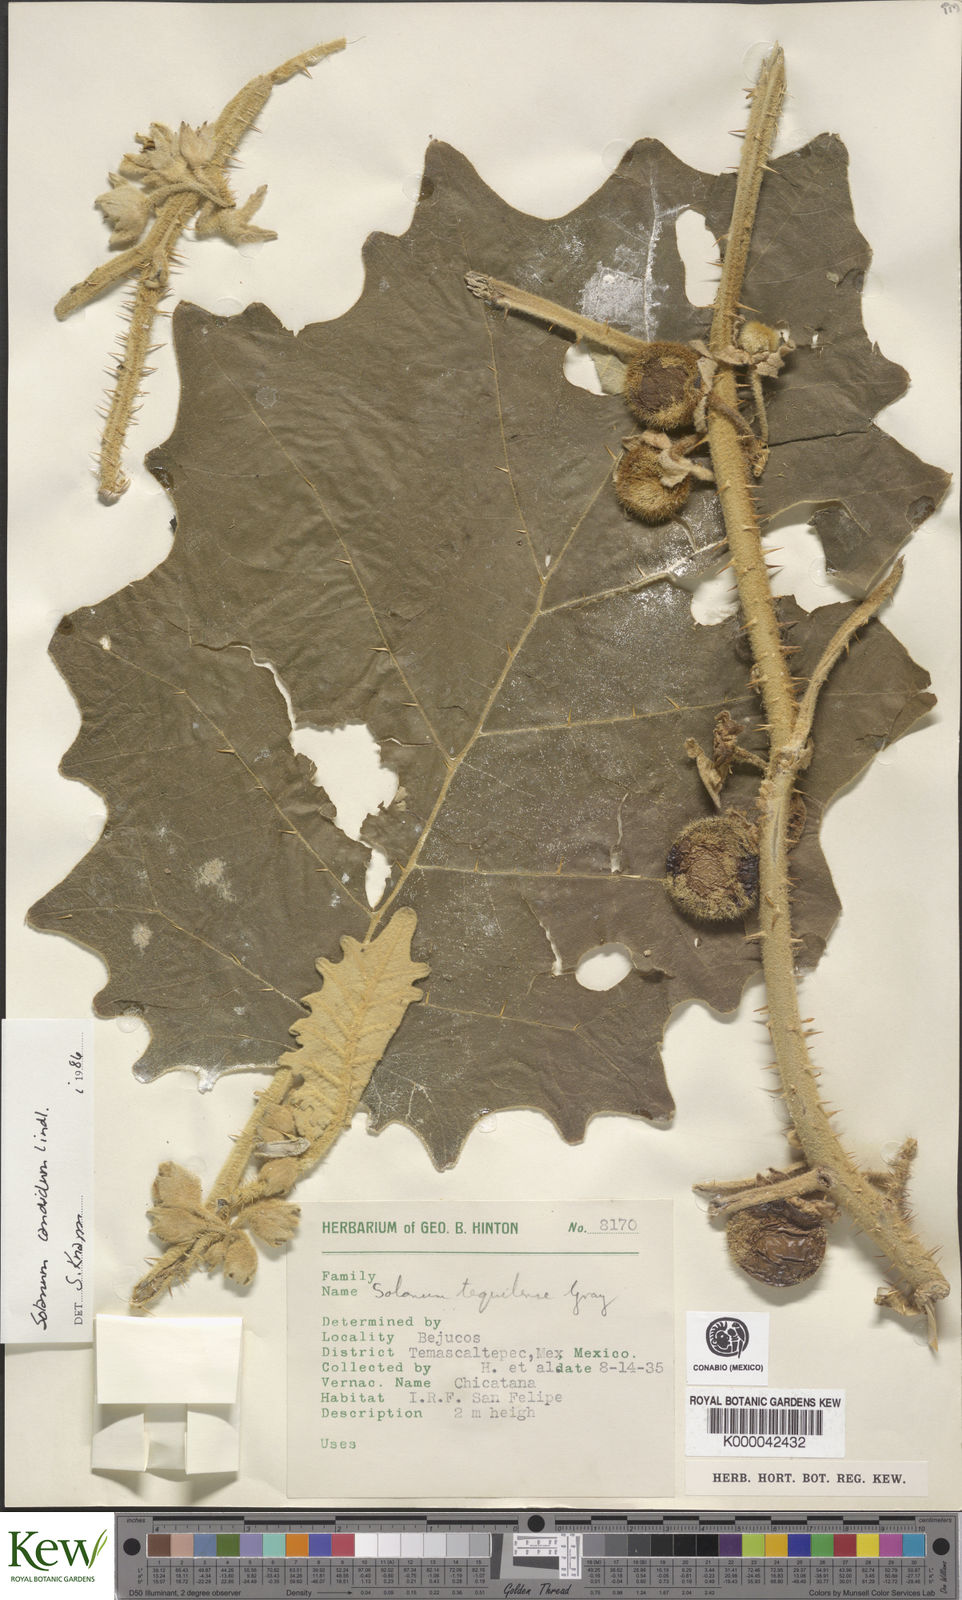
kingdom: Plantae
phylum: Tracheophyta
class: Magnoliopsida
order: Solanales
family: Solanaceae
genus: Solanum
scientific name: Solanum candidum
